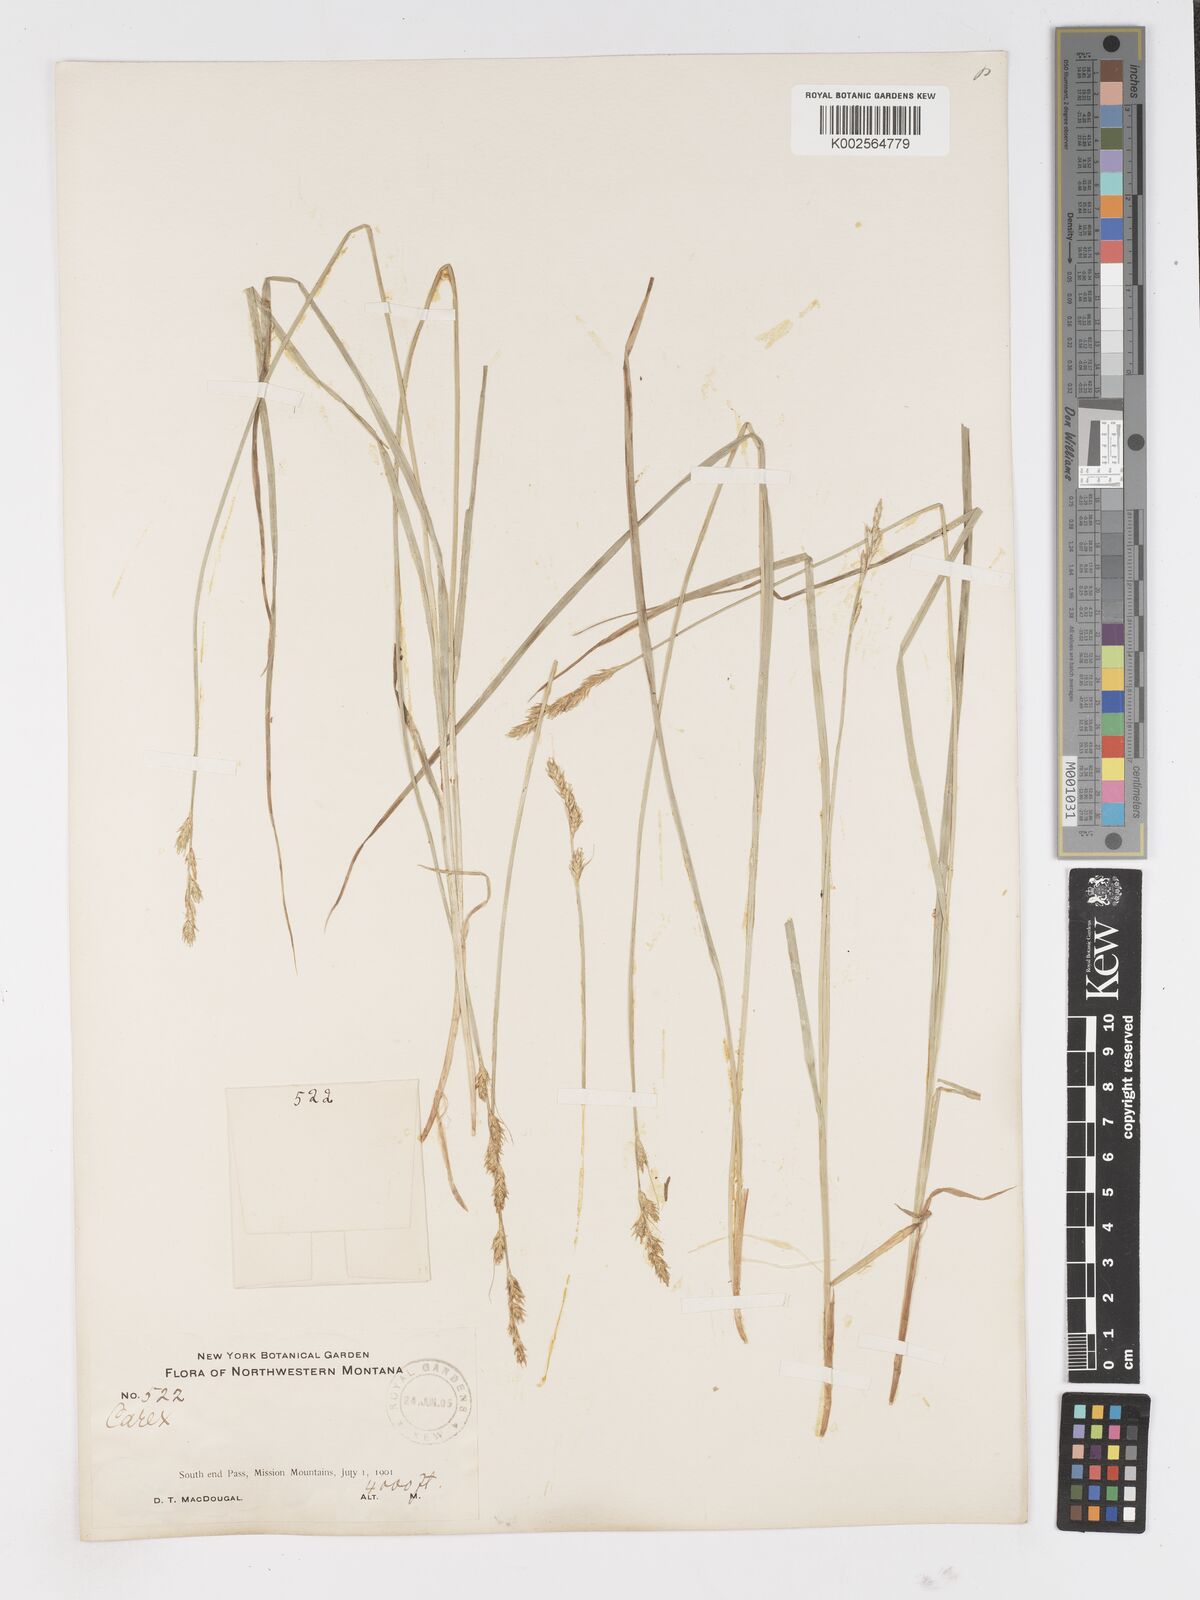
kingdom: Plantae
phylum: Tracheophyta
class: Liliopsida
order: Poales
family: Cyperaceae
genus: Carex
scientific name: Carex
